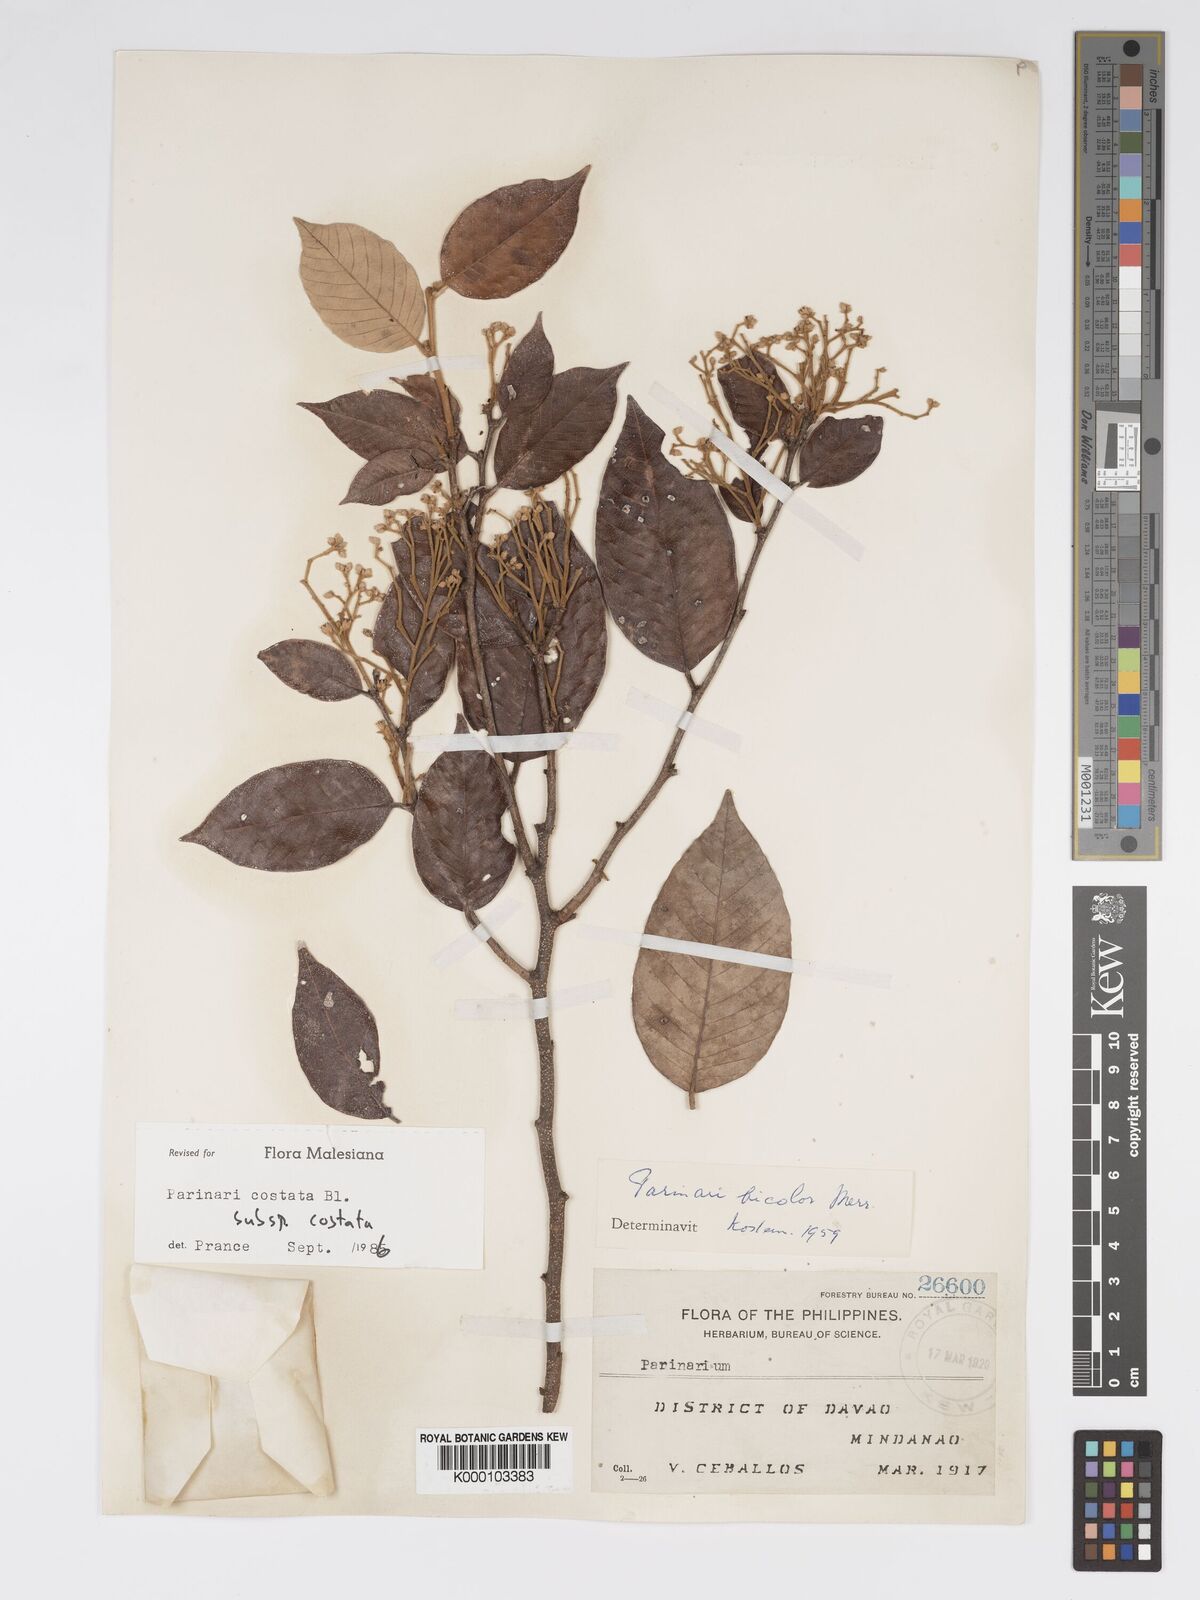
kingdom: Plantae
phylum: Tracheophyta
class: Magnoliopsida
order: Malpighiales
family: Chrysobalanaceae
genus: Parinari
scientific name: Parinari costata
